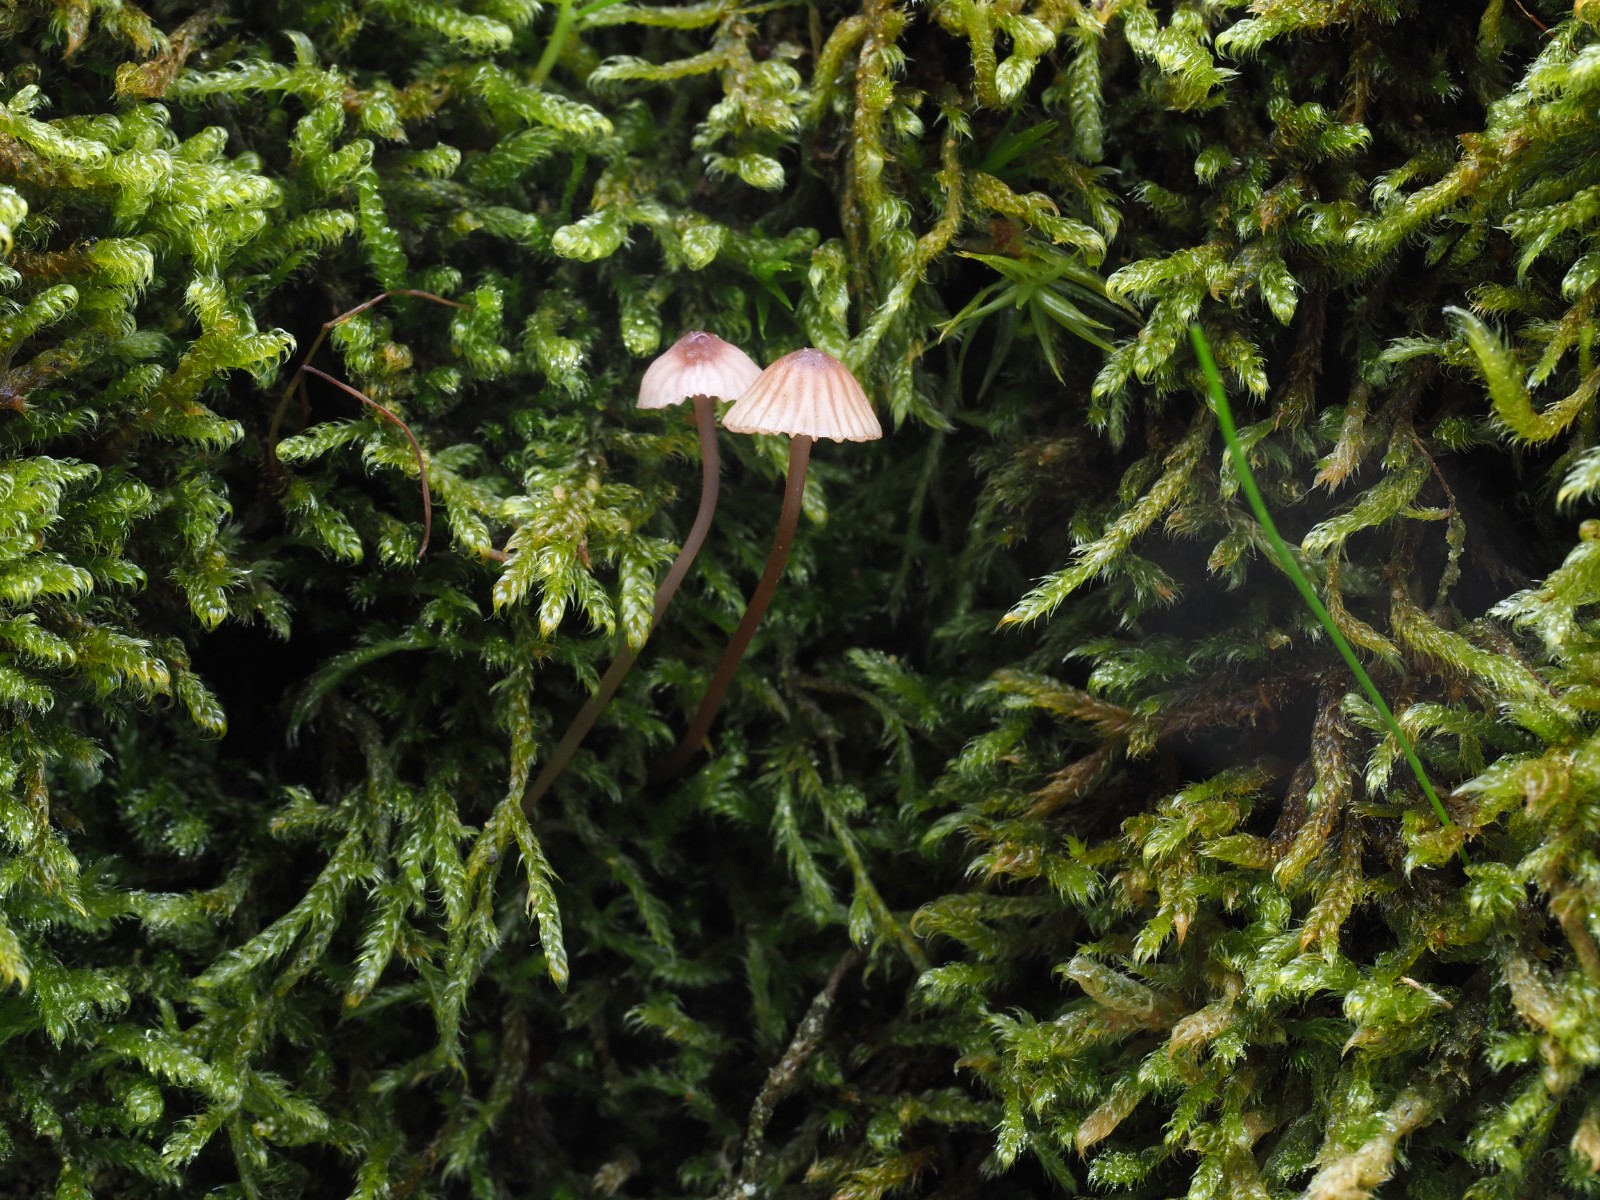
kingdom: Fungi
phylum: Basidiomycota
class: Agaricomycetes
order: Agaricales
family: Mycenaceae
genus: Mycena
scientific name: Mycena sanguinolenta
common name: rødmælket huesvamp
